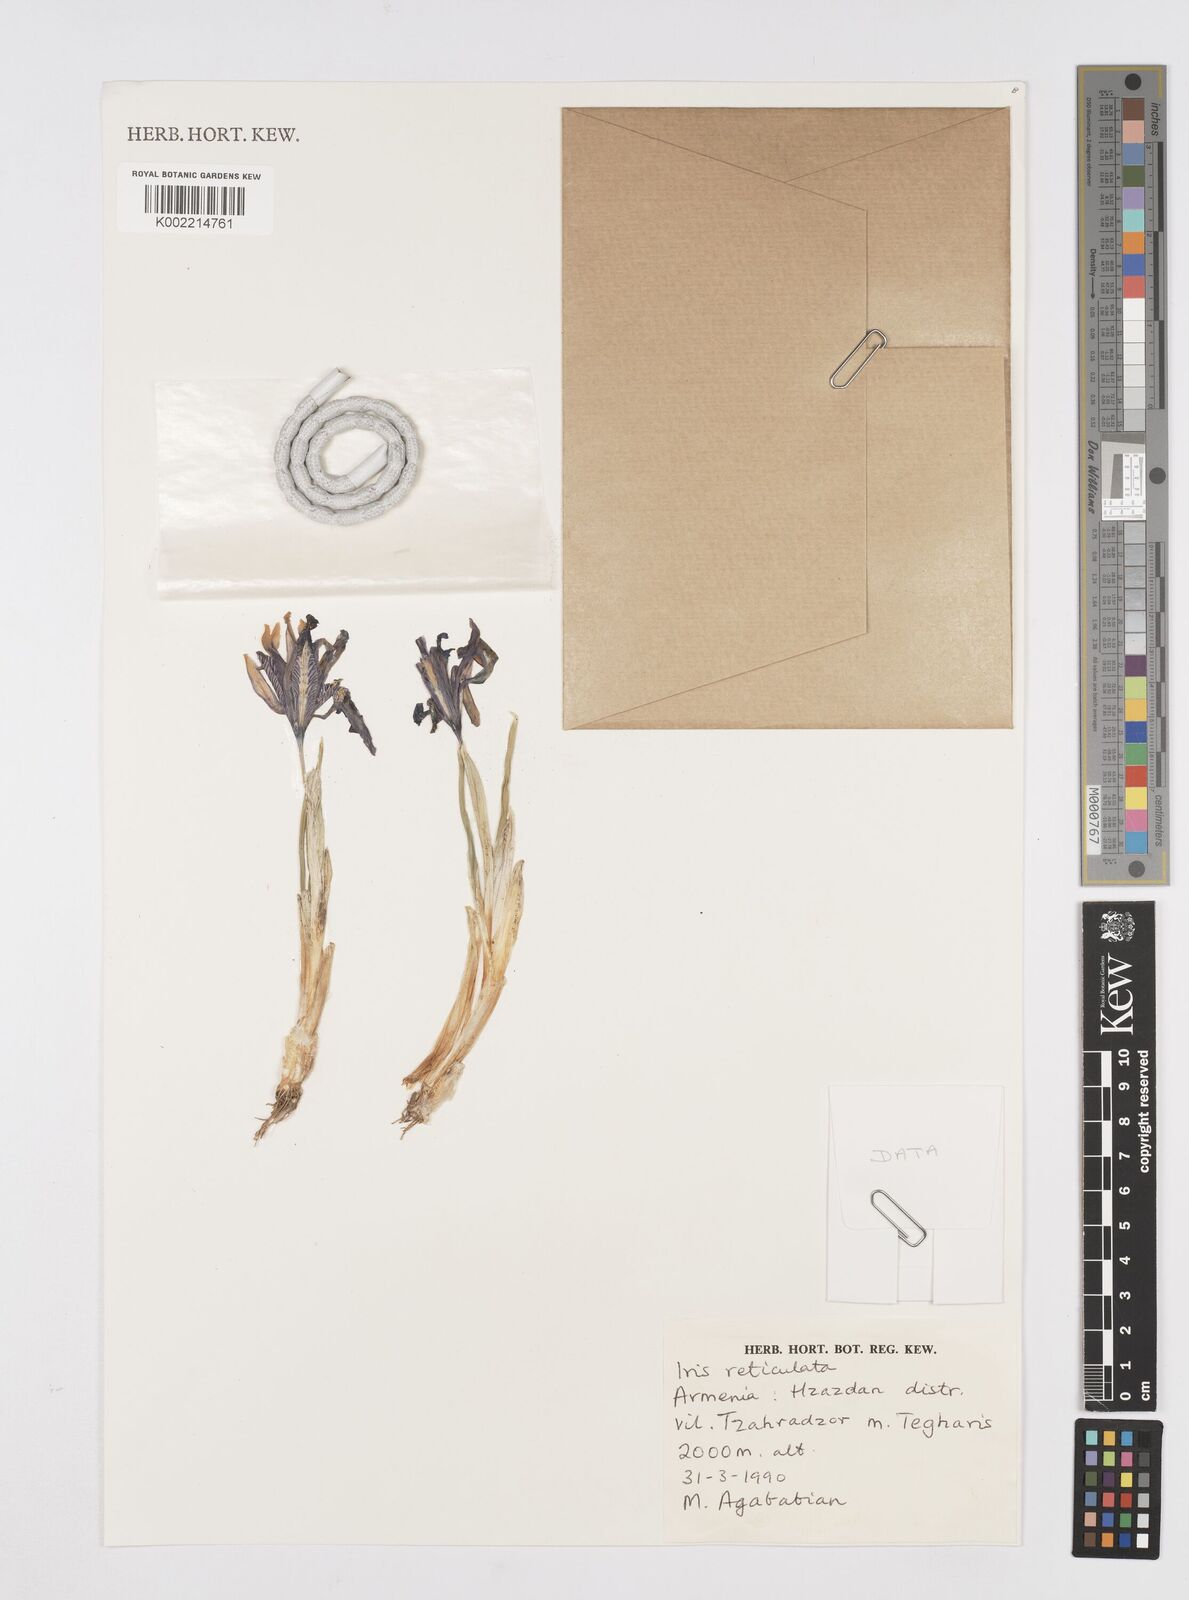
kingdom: Plantae
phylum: Tracheophyta
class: Liliopsida
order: Asparagales
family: Iridaceae
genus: Iris
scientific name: Iris reticulata
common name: Netted iris
